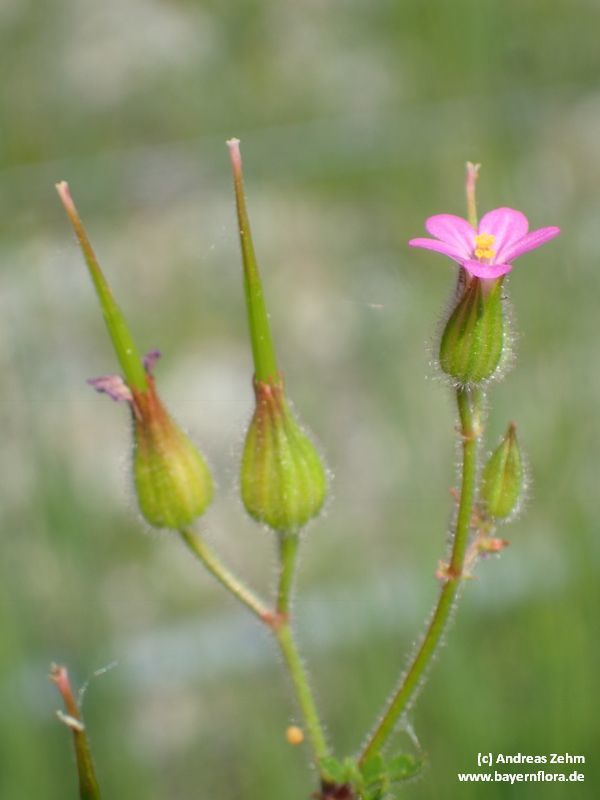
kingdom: Plantae
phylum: Tracheophyta
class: Magnoliopsida
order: Geraniales
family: Geraniaceae
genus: Geranium
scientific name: Geranium purpureum
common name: Little-robin
